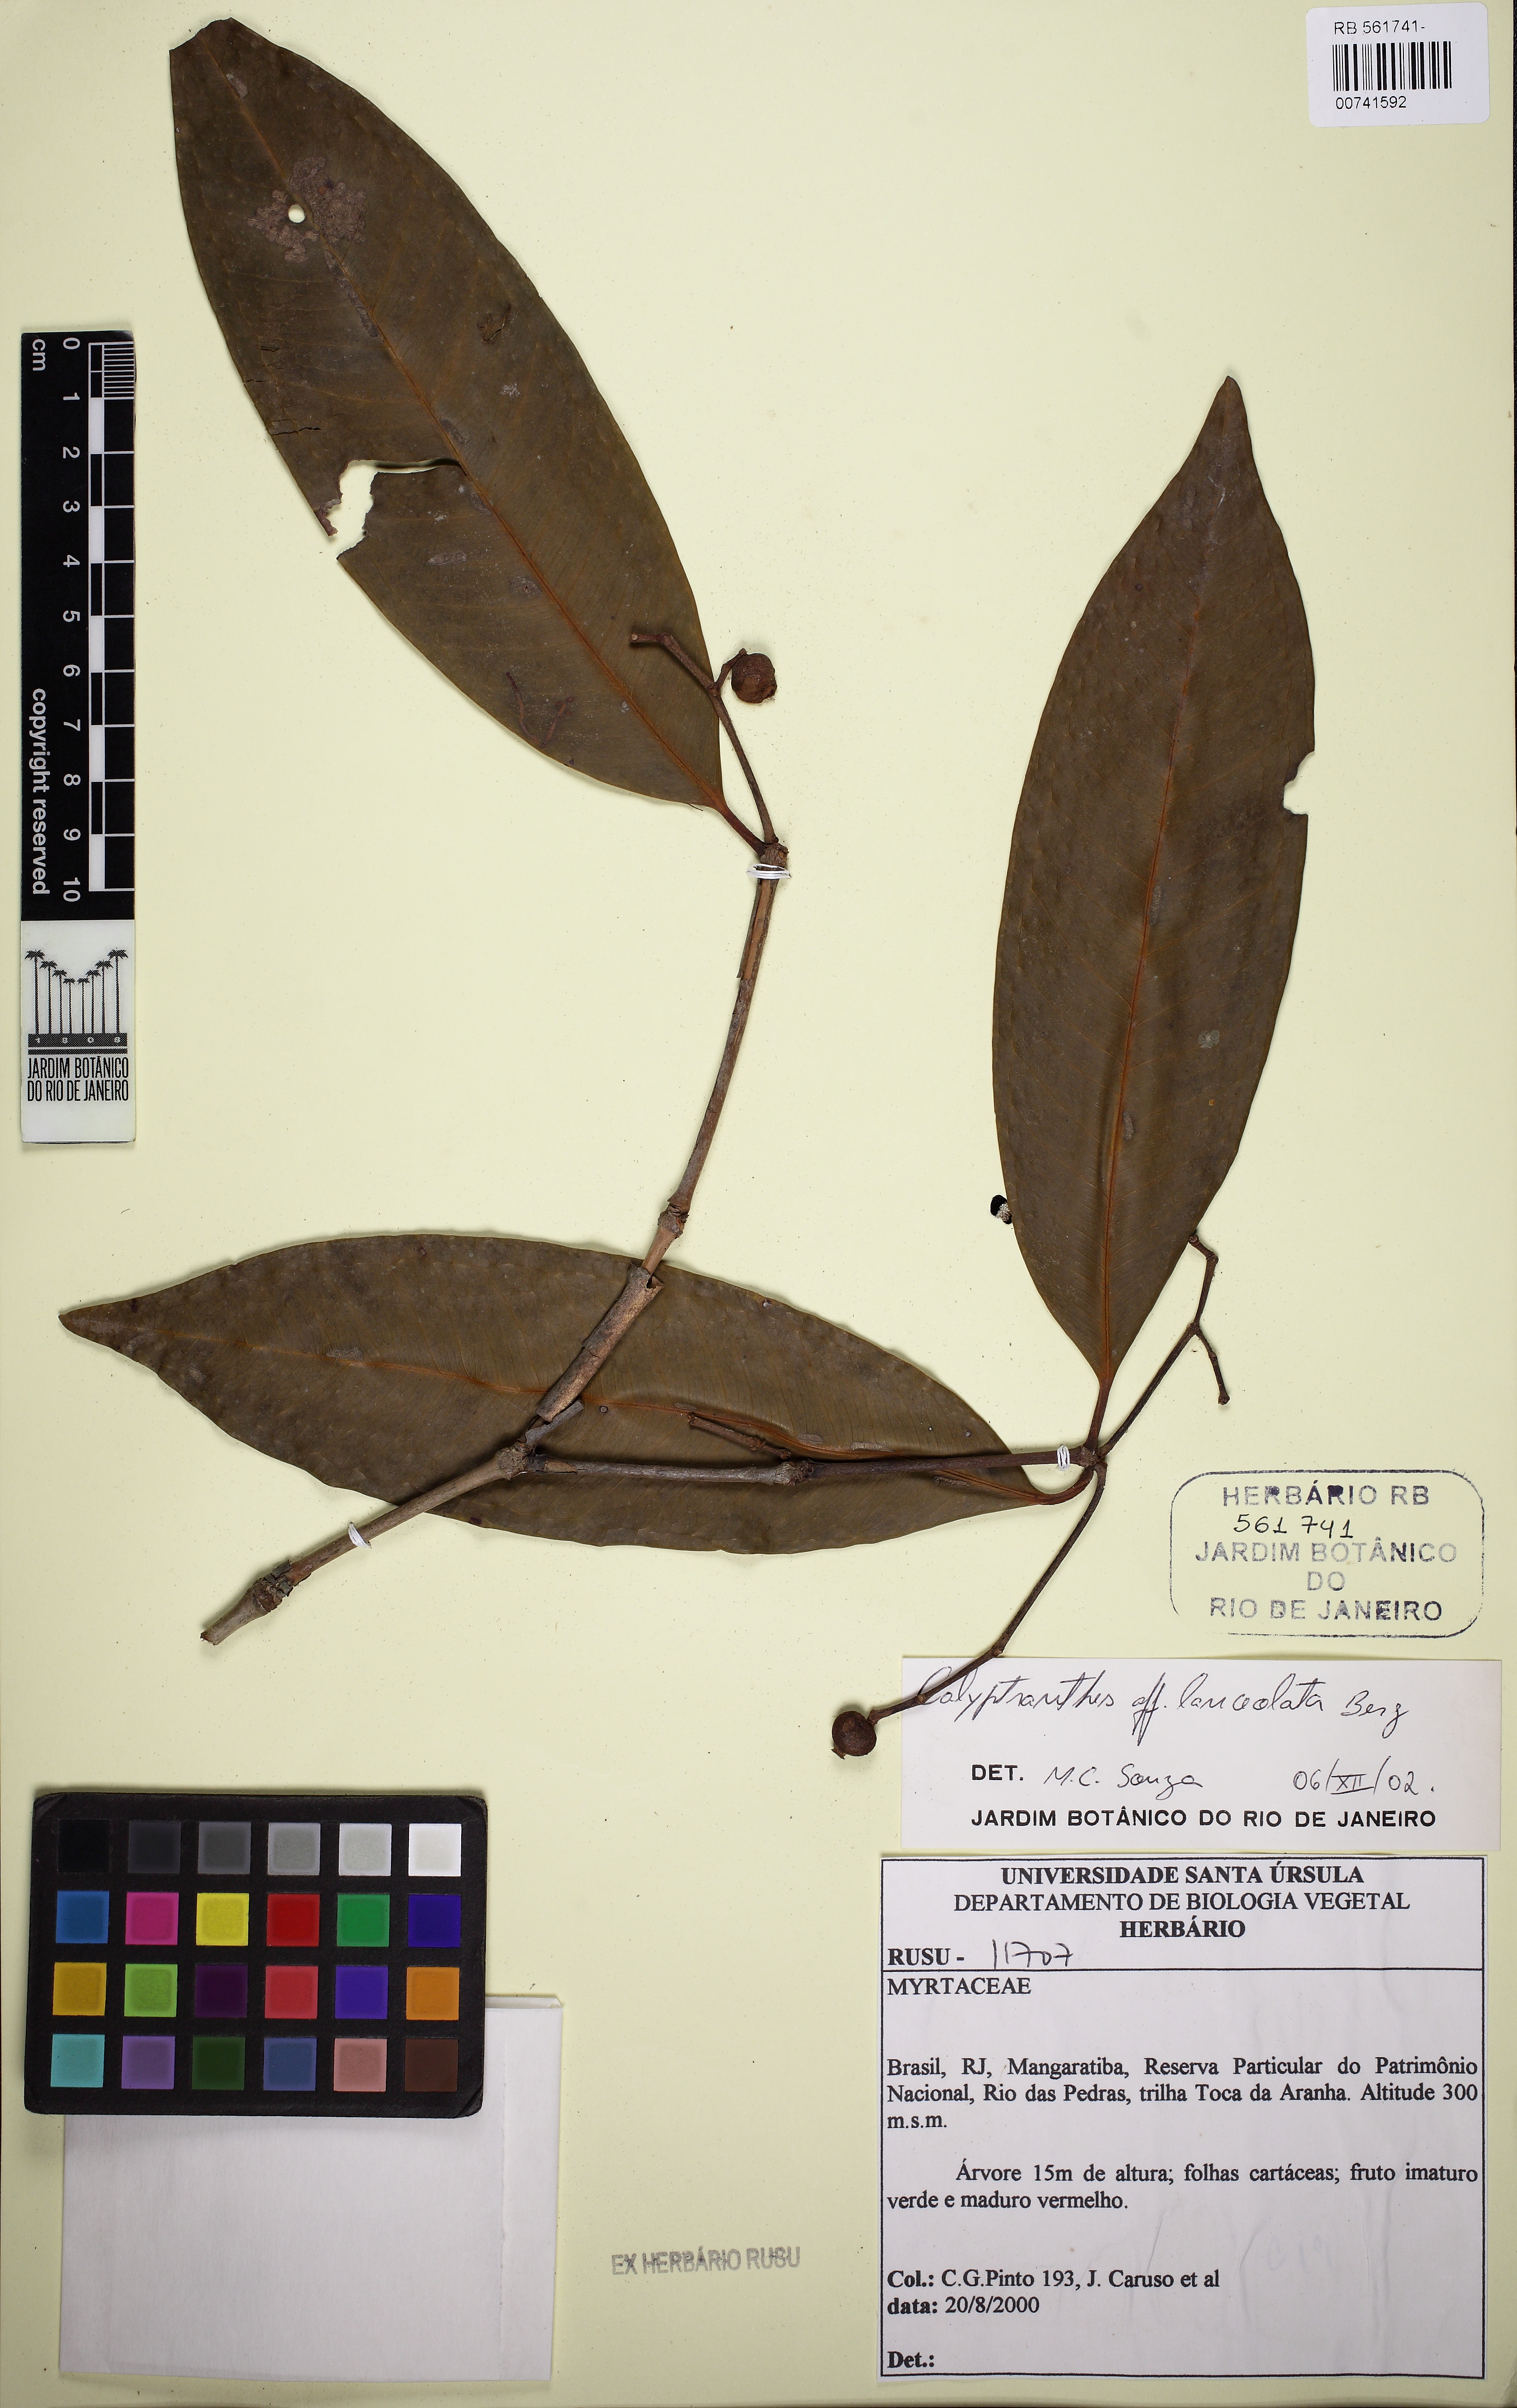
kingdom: Plantae
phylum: Tracheophyta
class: Magnoliopsida
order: Myrtales
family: Myrtaceae
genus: Calyptranthes
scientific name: Calyptranthes grandifolia
